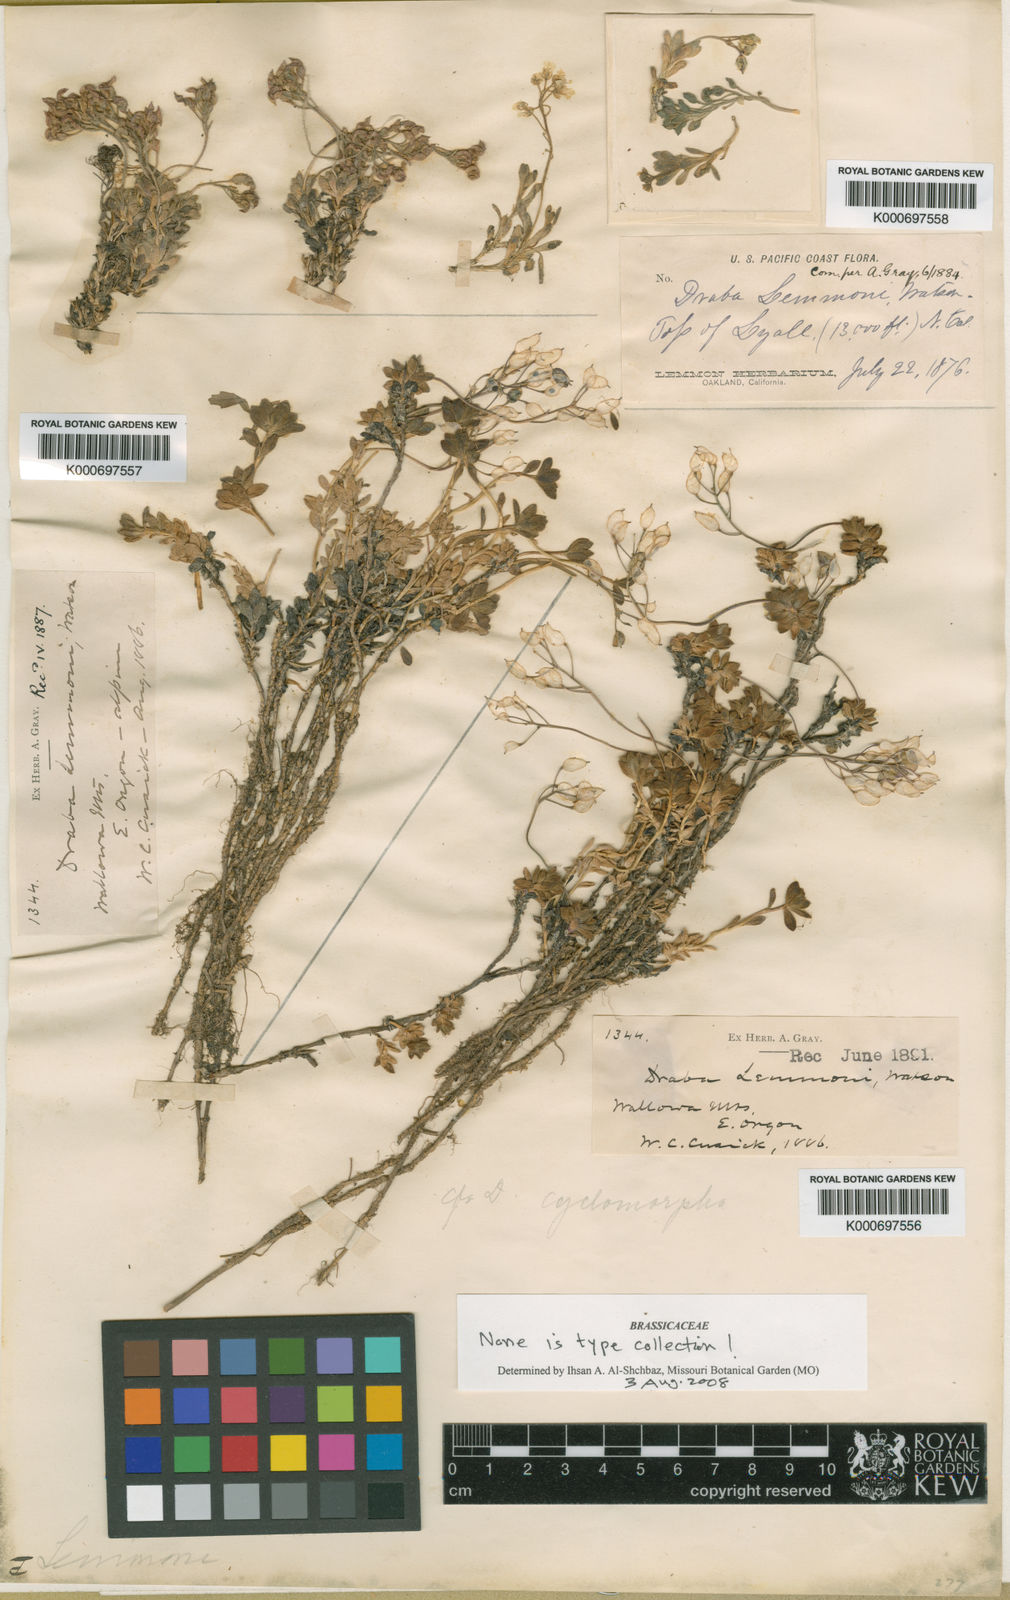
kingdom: Plantae
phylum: Tracheophyta
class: Magnoliopsida
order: Brassicales
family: Brassicaceae
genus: Draba
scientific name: Draba lemmonii
